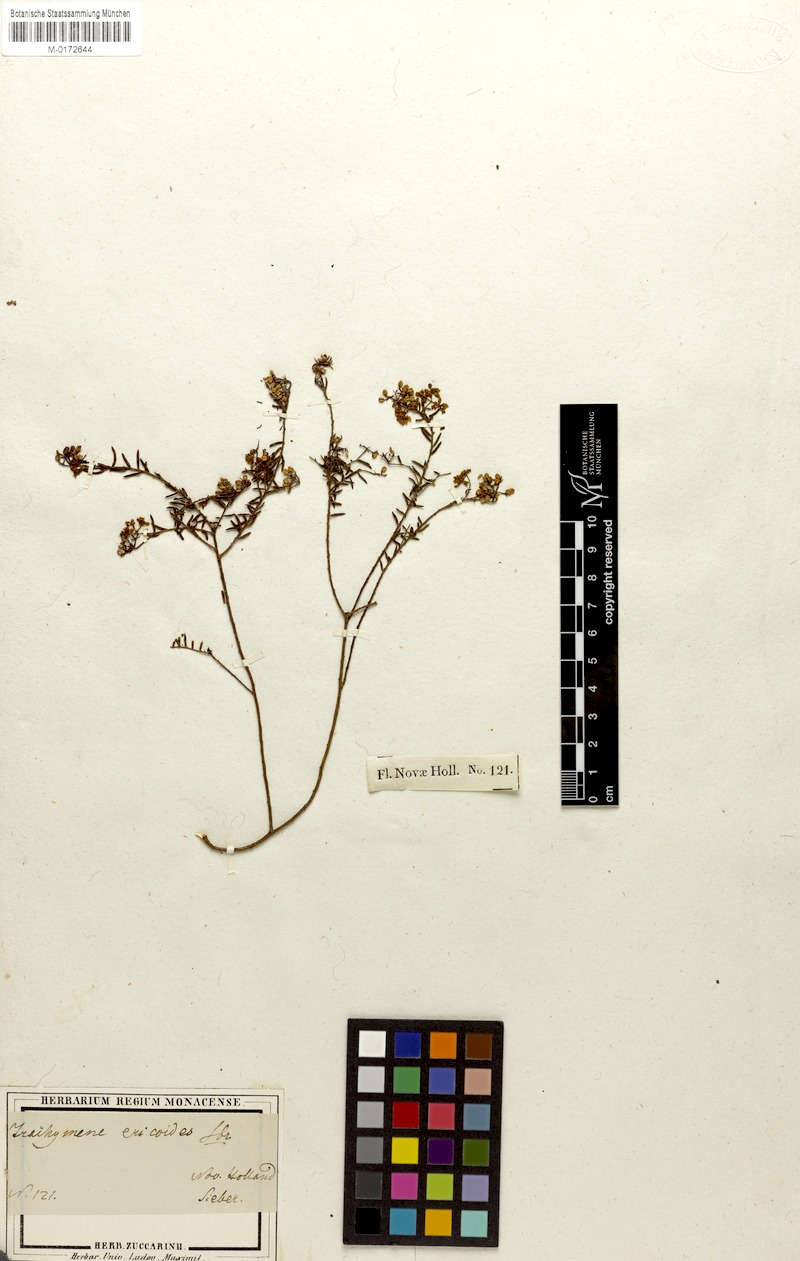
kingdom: Plantae
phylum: Tracheophyta
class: Magnoliopsida
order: Apiales
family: Apiaceae
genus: Platysace
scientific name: Platysace ericoides
